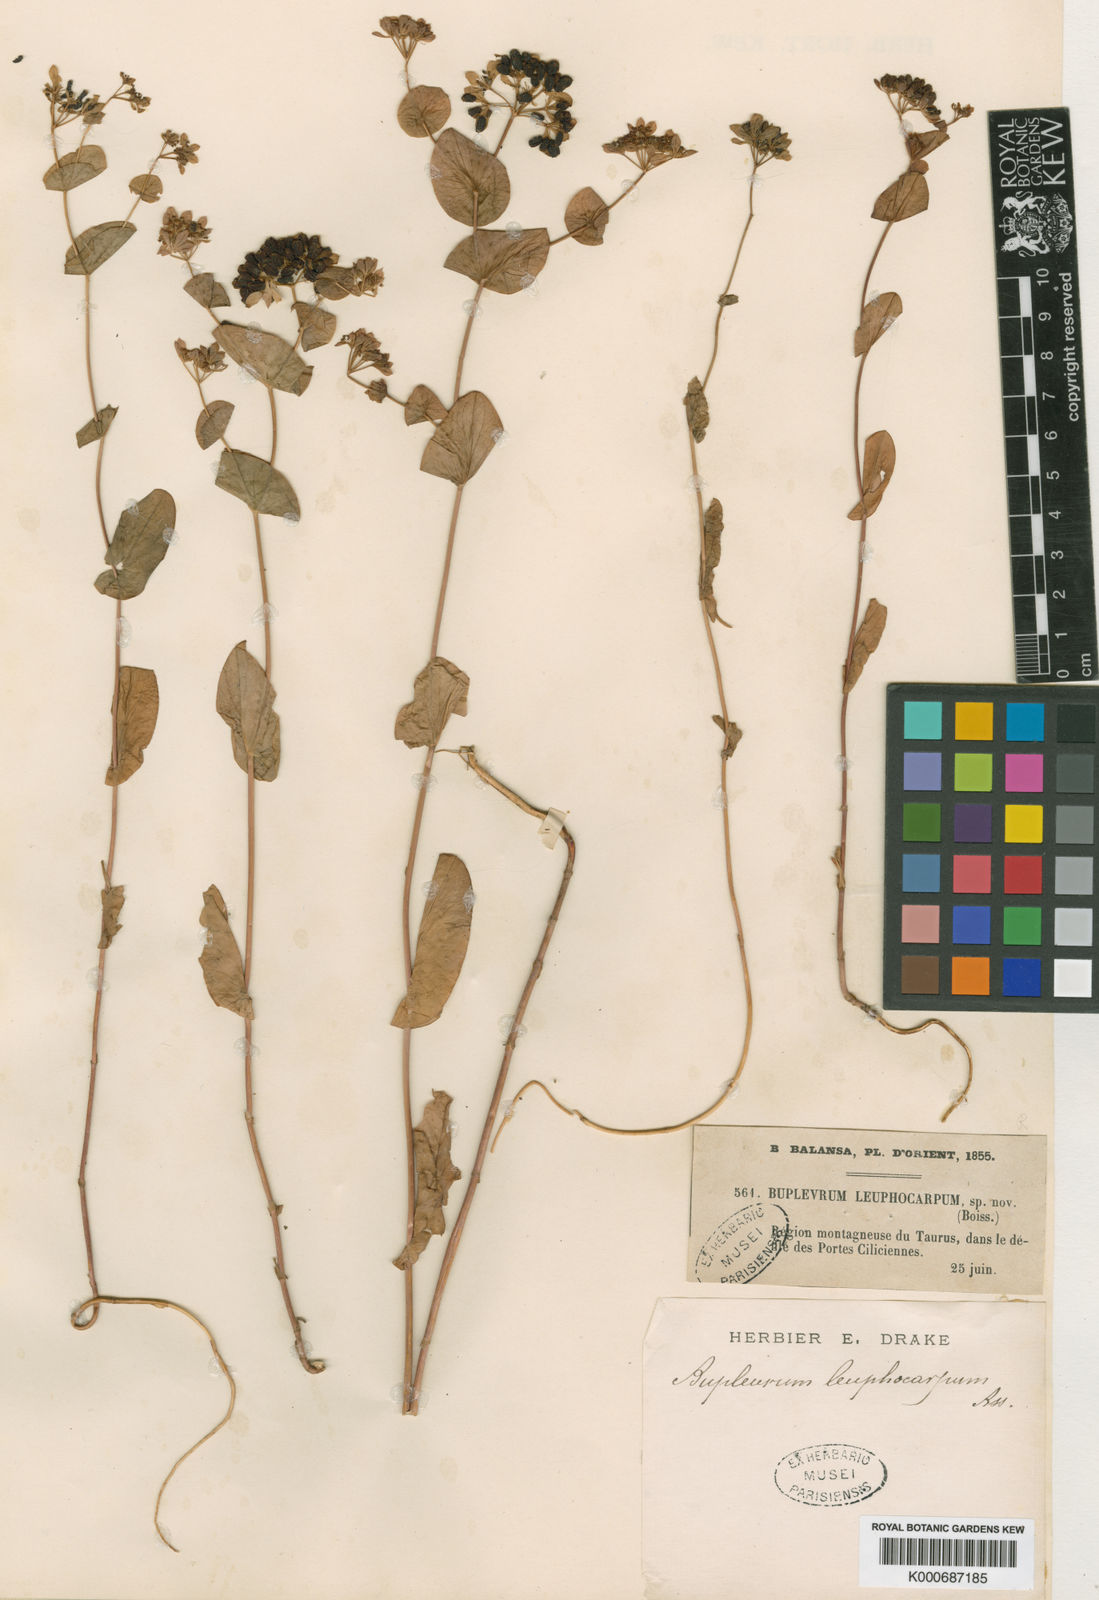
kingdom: Plantae
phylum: Tracheophyta
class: Magnoliopsida
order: Apiales
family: Apiaceae
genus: Bupleurum
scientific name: Bupleurum lophocarpum
